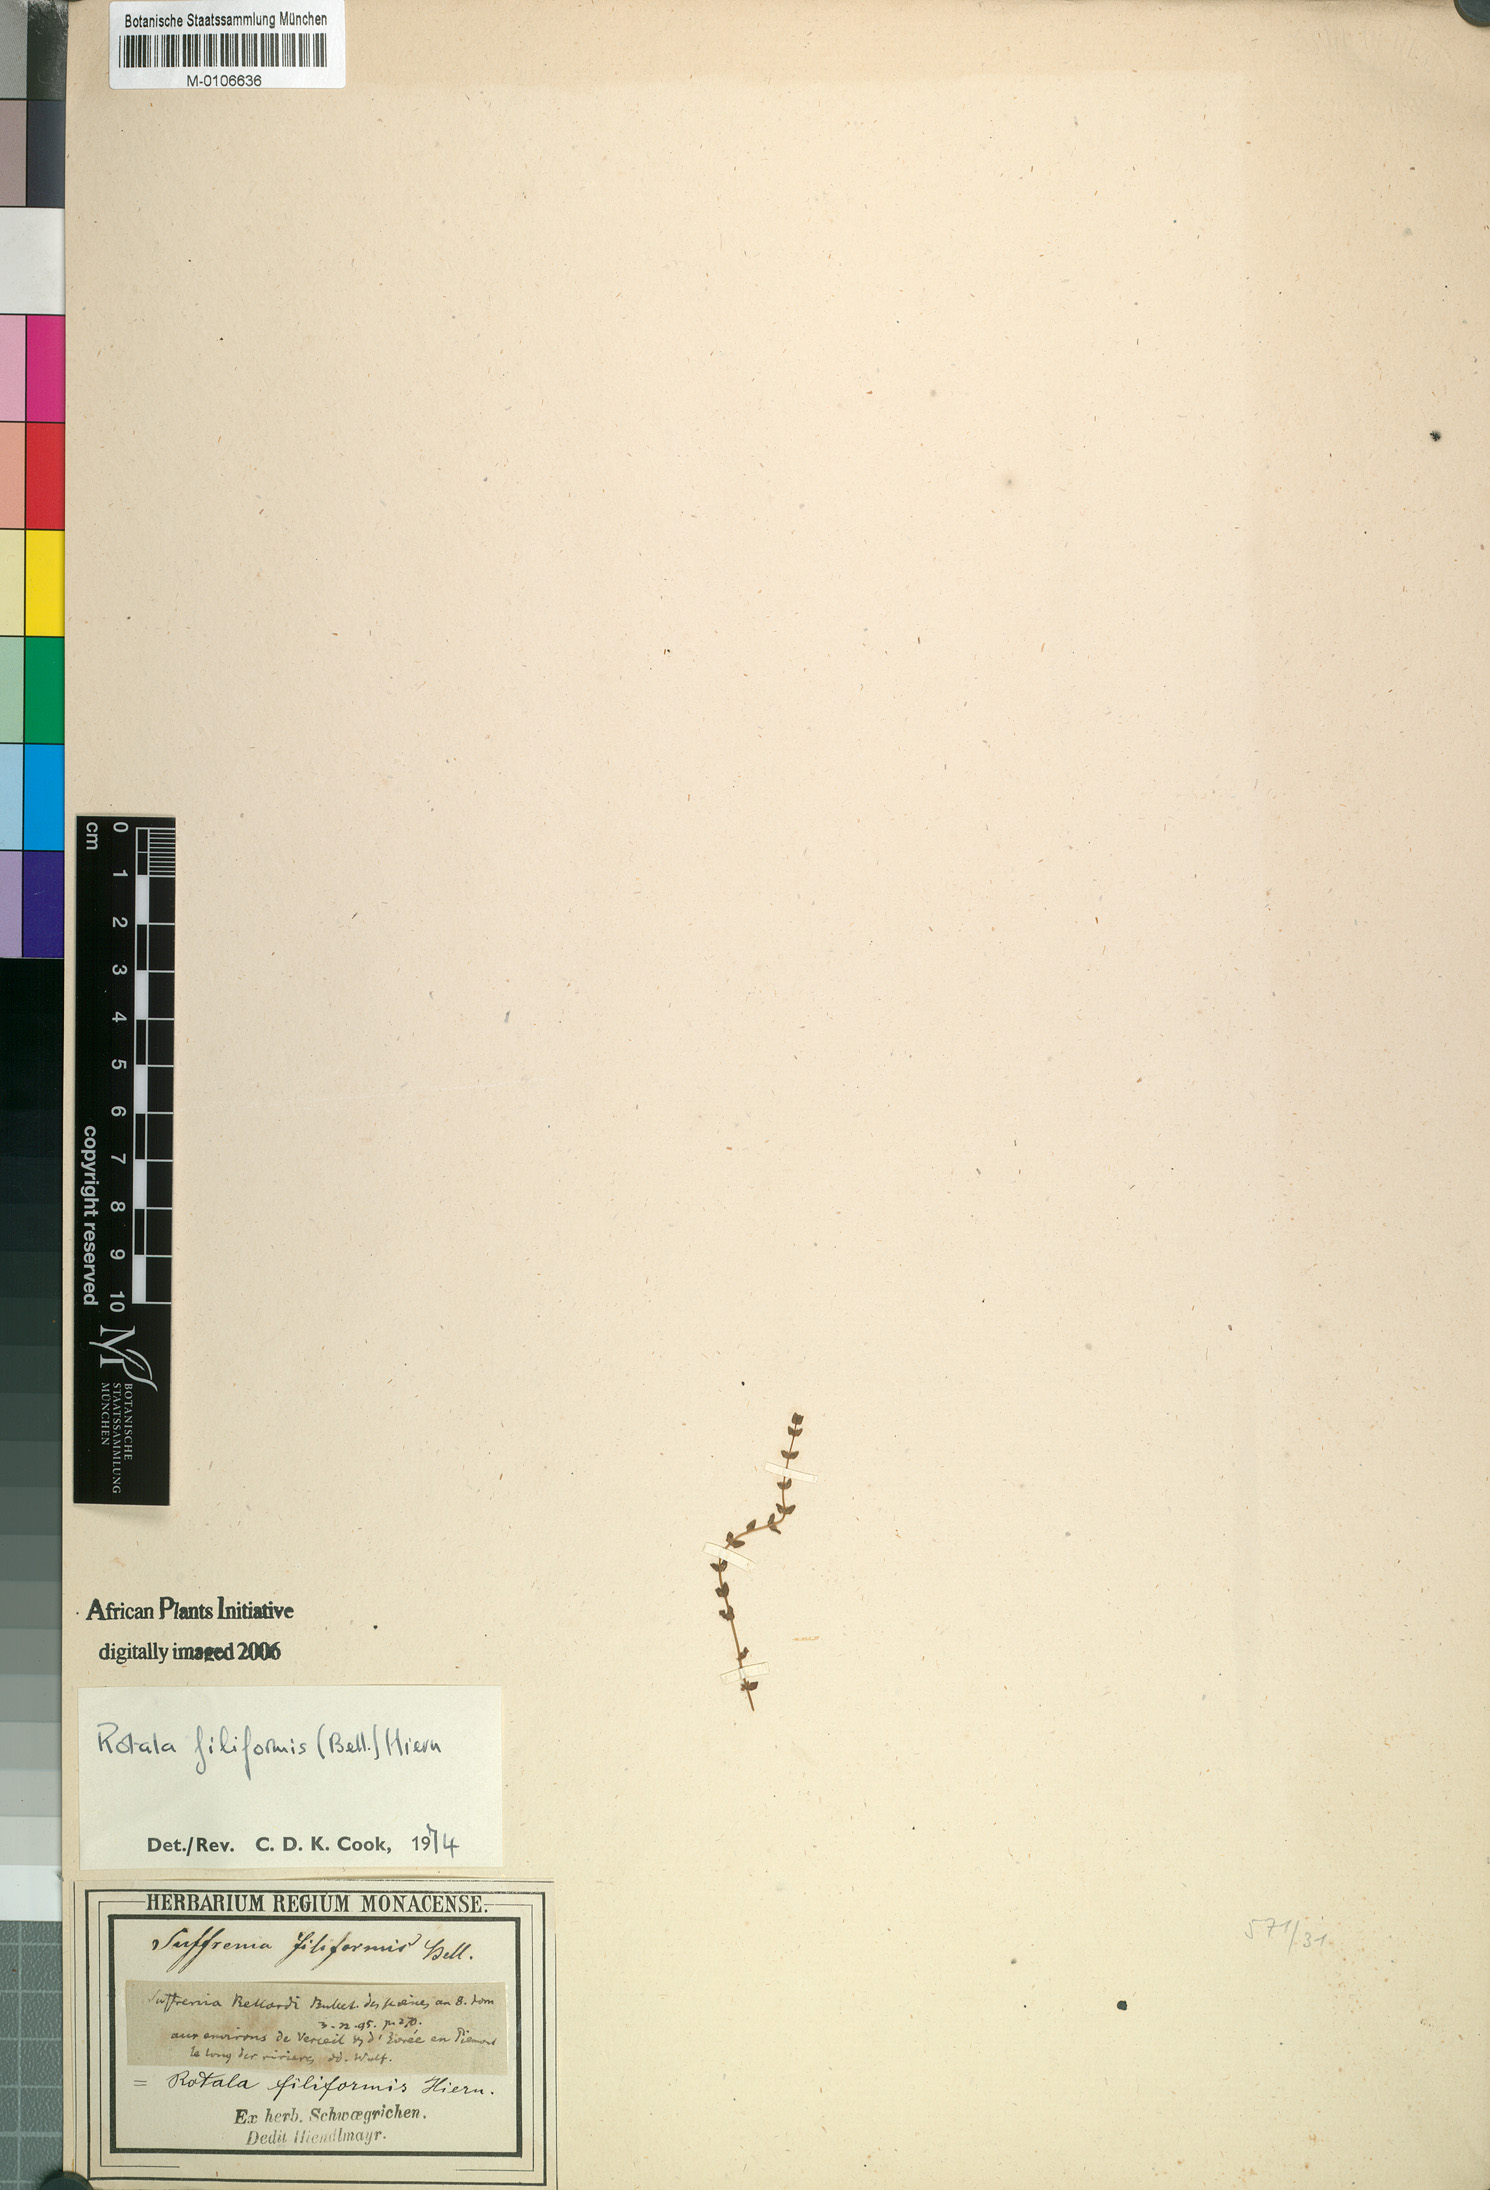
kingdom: Plantae
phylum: Tracheophyta
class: Magnoliopsida
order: Myrtales
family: Lythraceae
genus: Rotala
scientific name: Rotala filiformis
